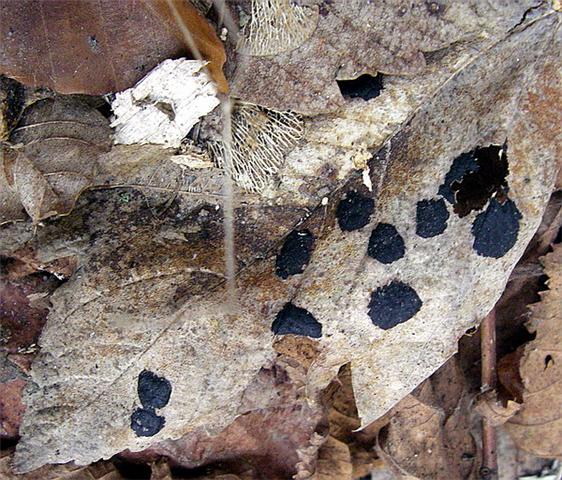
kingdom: Fungi
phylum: Ascomycota
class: Leotiomycetes
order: Rhytismatales
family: Rhytismataceae
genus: Rhytisma
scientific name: Rhytisma acerinum
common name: ahorn-rynkeplet
